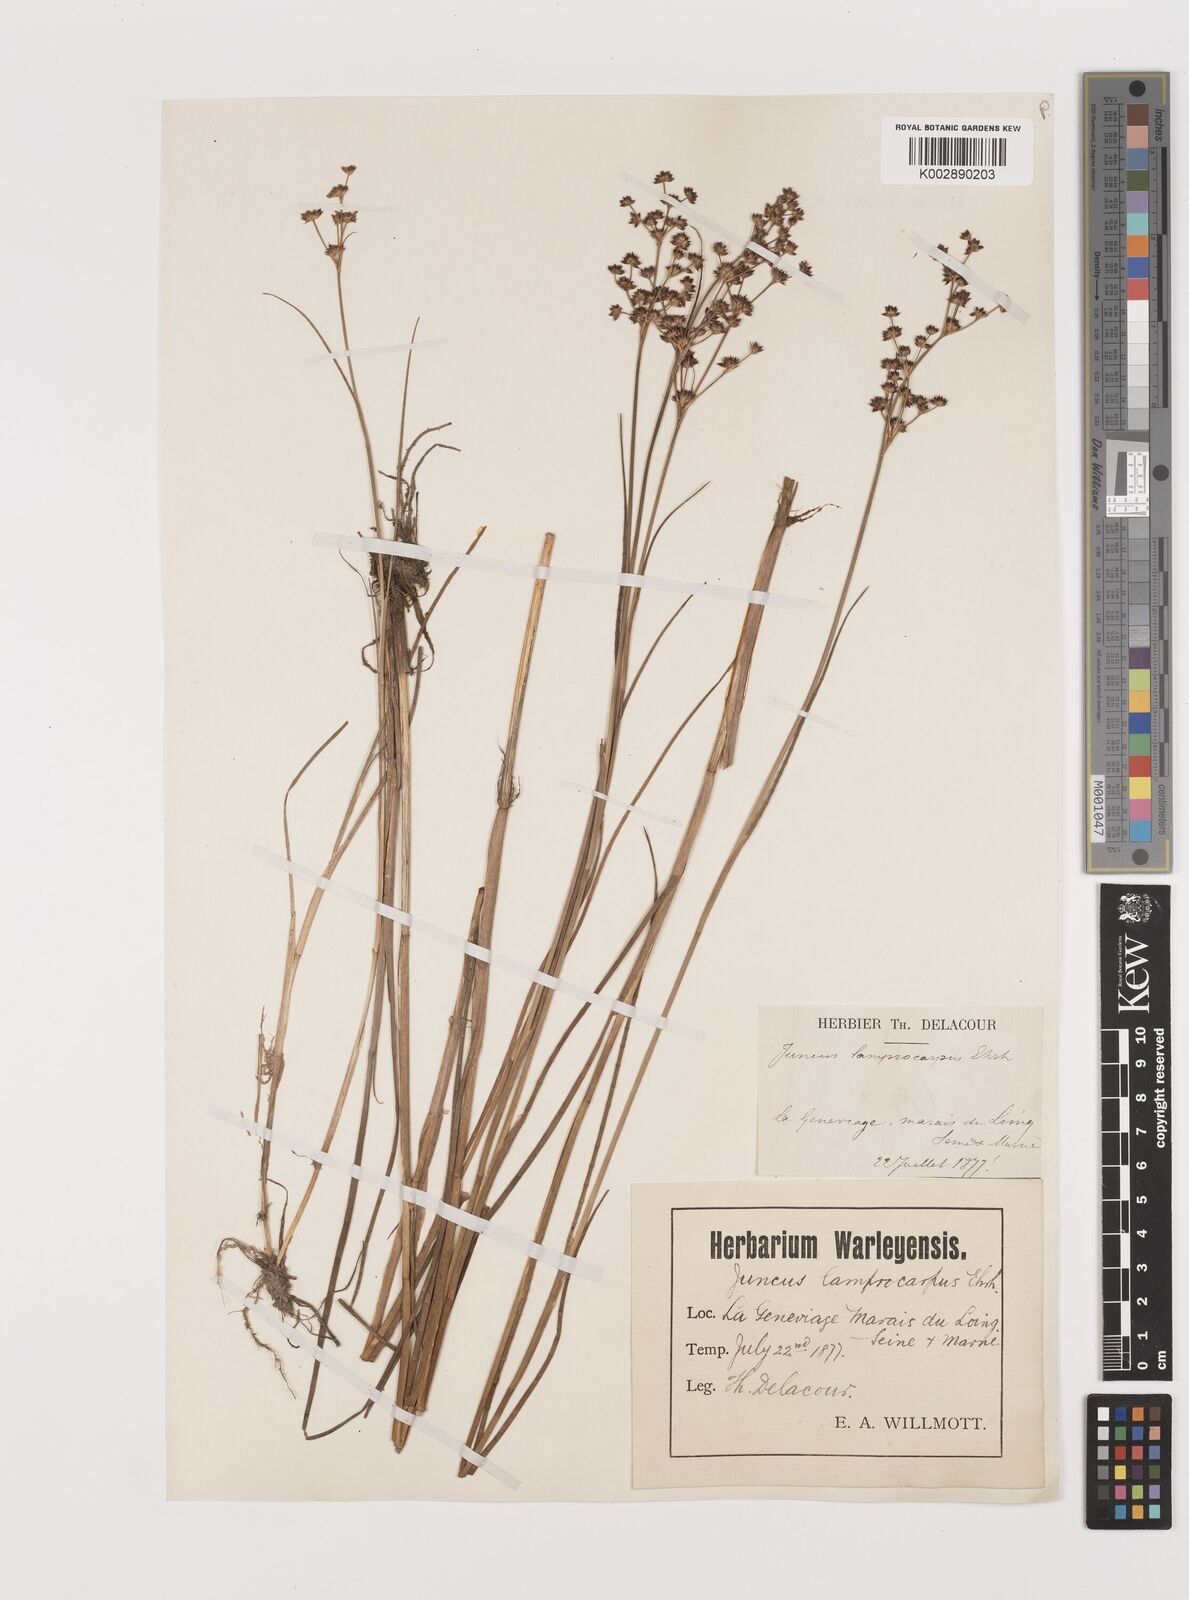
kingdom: Plantae
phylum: Tracheophyta
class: Liliopsida
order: Poales
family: Juncaceae
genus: Juncus
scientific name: Juncus articulatus
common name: Jointed rush
